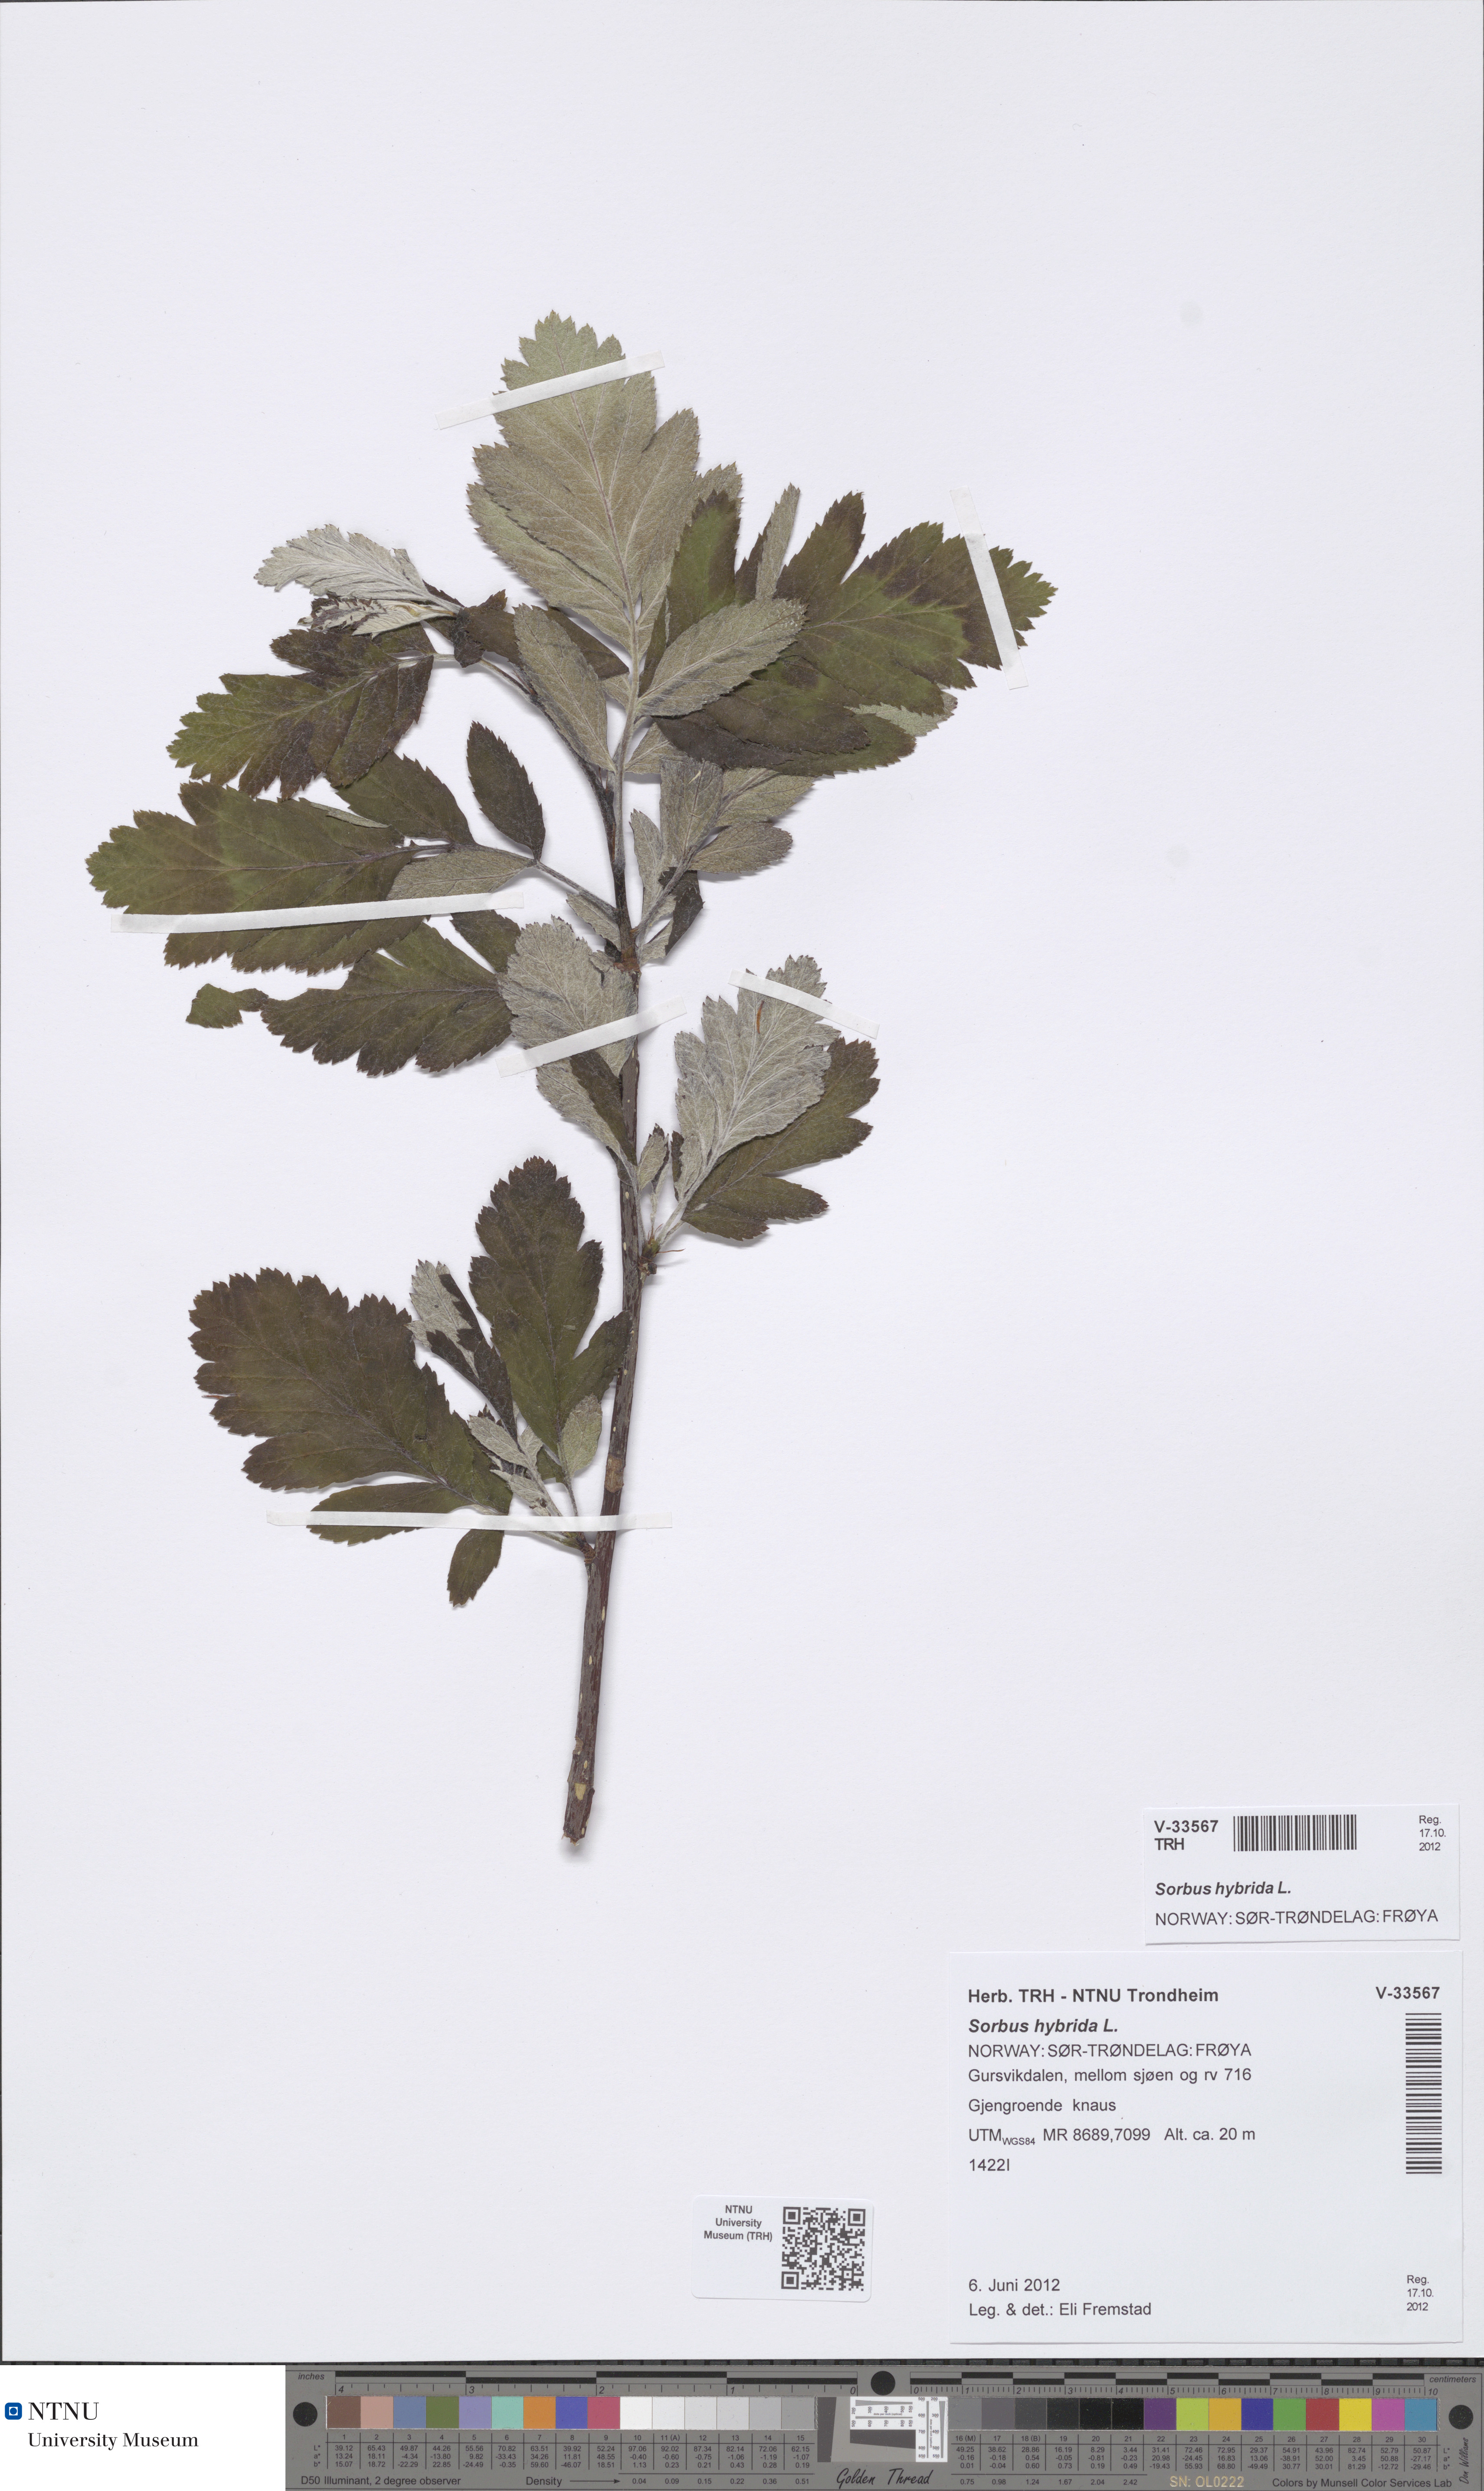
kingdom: Plantae
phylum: Tracheophyta
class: Magnoliopsida
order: Rosales
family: Rosaceae
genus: Hedlundia
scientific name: Hedlundia hybrida
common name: Swedish service-tree
